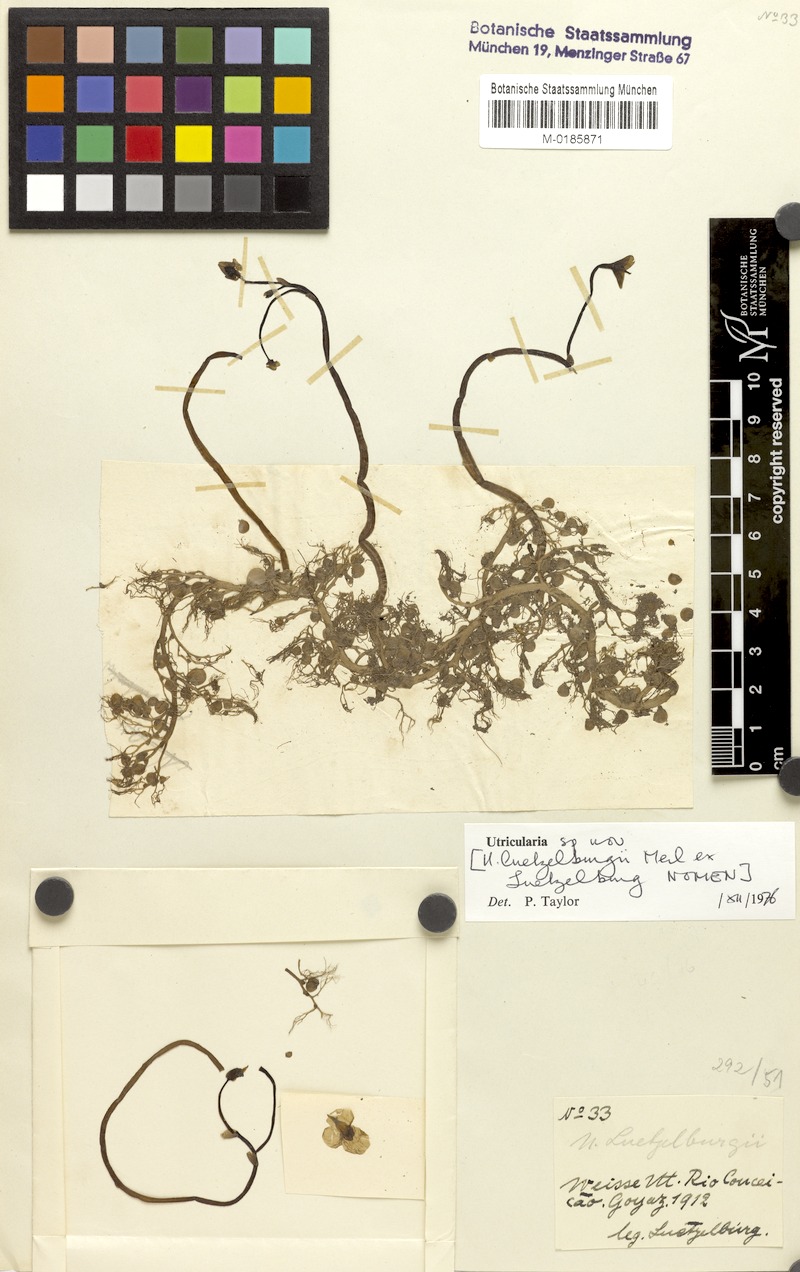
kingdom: Plantae
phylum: Tracheophyta
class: Magnoliopsida
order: Lamiales
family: Lentibulariaceae
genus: Utricularia
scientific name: Utricularia poconensis
